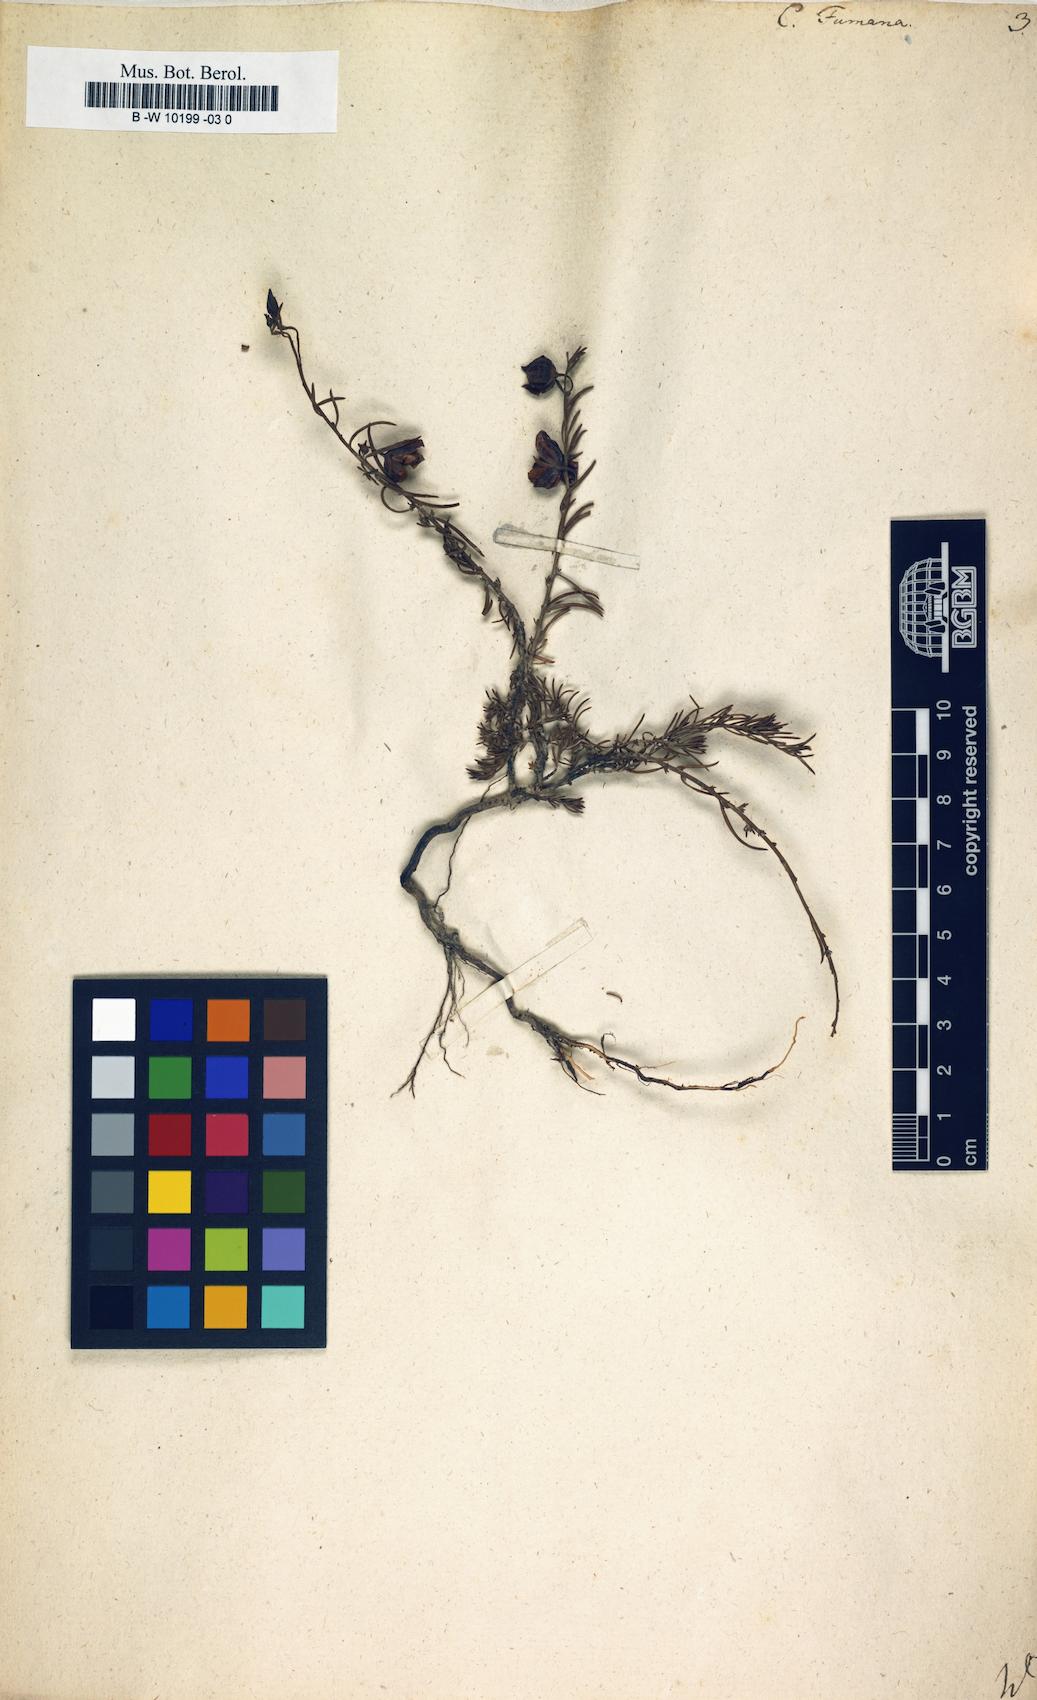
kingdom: Plantae
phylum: Tracheophyta
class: Magnoliopsida
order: Malvales
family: Cistaceae
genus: Fumana
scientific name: Fumana procumbens
